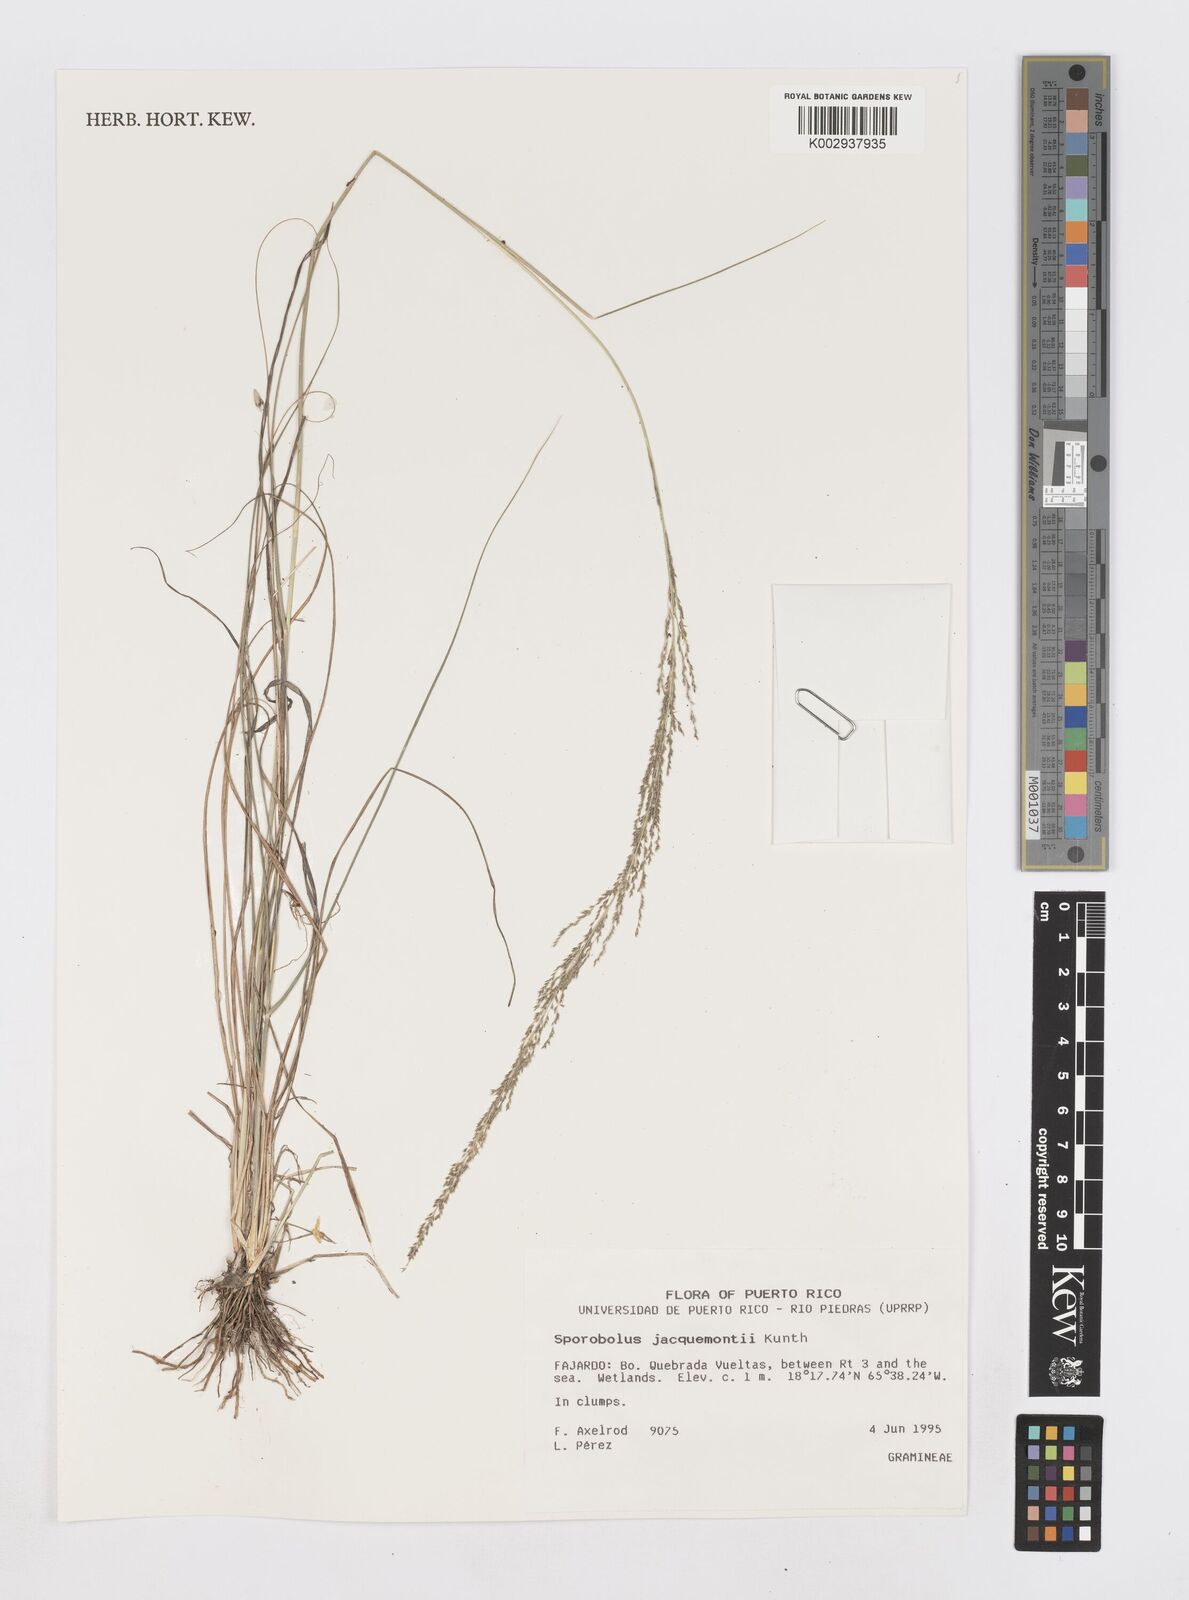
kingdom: Plantae
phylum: Tracheophyta
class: Liliopsida
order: Poales
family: Poaceae
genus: Sporobolus
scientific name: Sporobolus pyramidalis
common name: West indian dropseed
